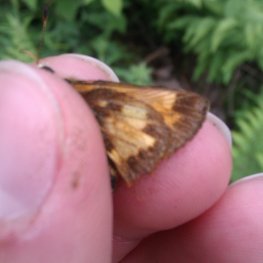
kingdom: Animalia
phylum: Arthropoda
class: Insecta
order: Lepidoptera
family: Hesperiidae
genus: Lon
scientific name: Lon hobomok
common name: Hobomok Skipper
